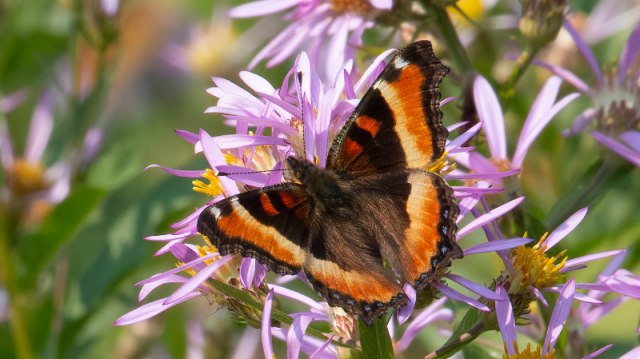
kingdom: Animalia
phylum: Arthropoda
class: Insecta
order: Lepidoptera
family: Nymphalidae
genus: Aglais
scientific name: Aglais milberti
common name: Milbert's Tortoiseshell
